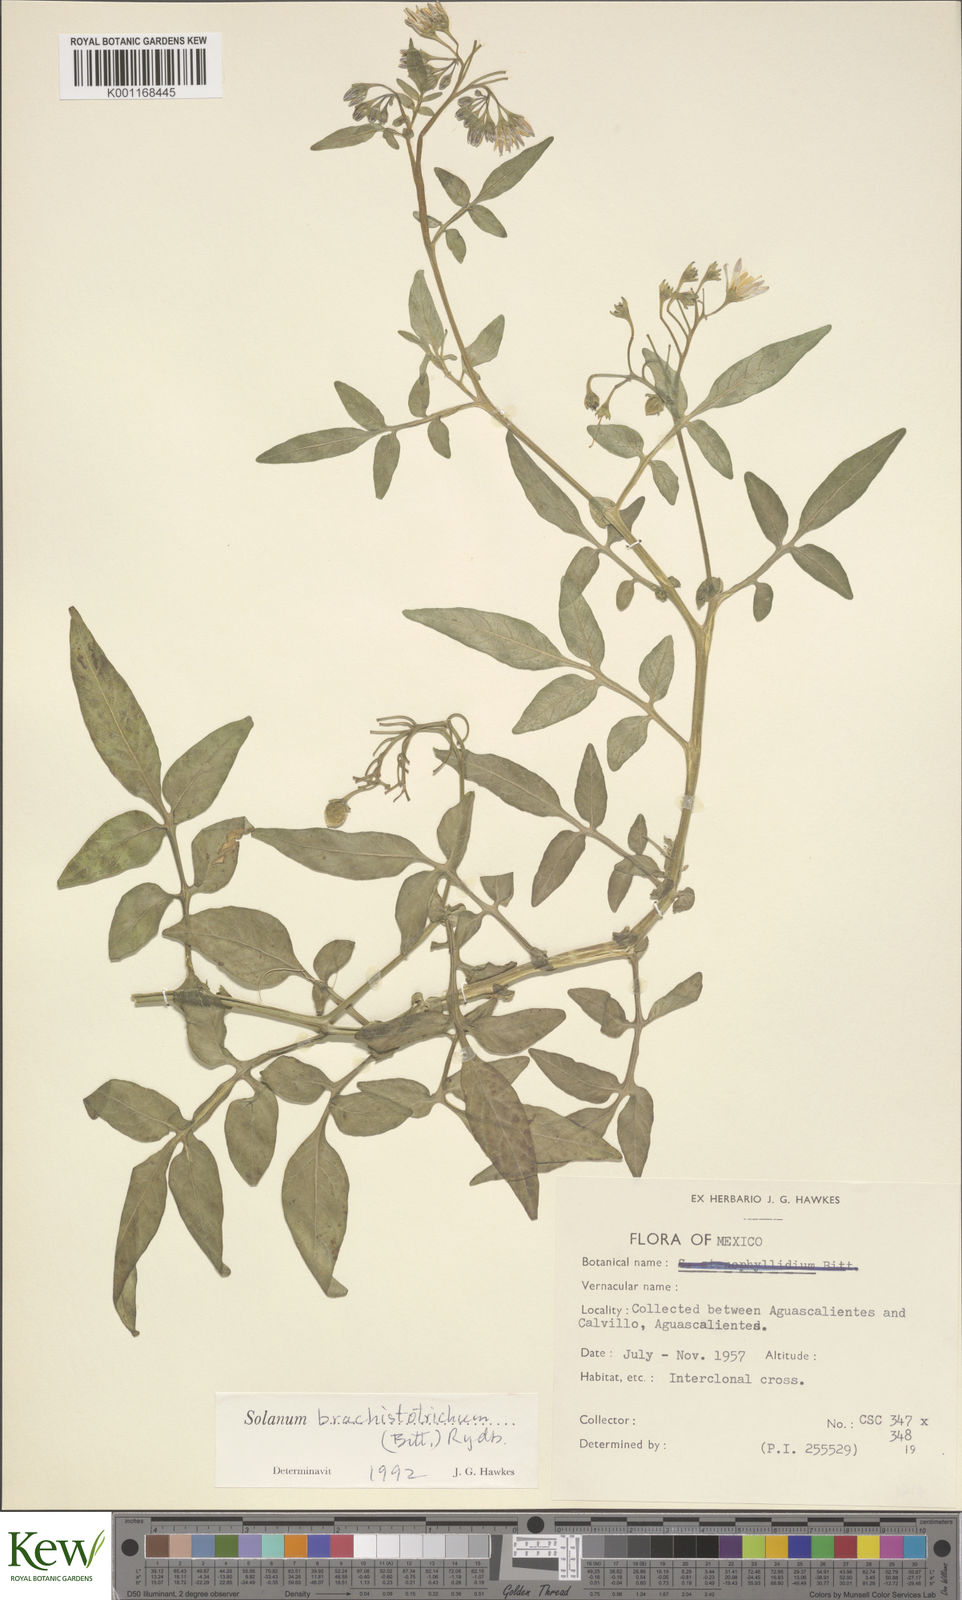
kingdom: Plantae
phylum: Tracheophyta
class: Magnoliopsida
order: Solanales
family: Solanaceae
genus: Solanum
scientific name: Solanum
